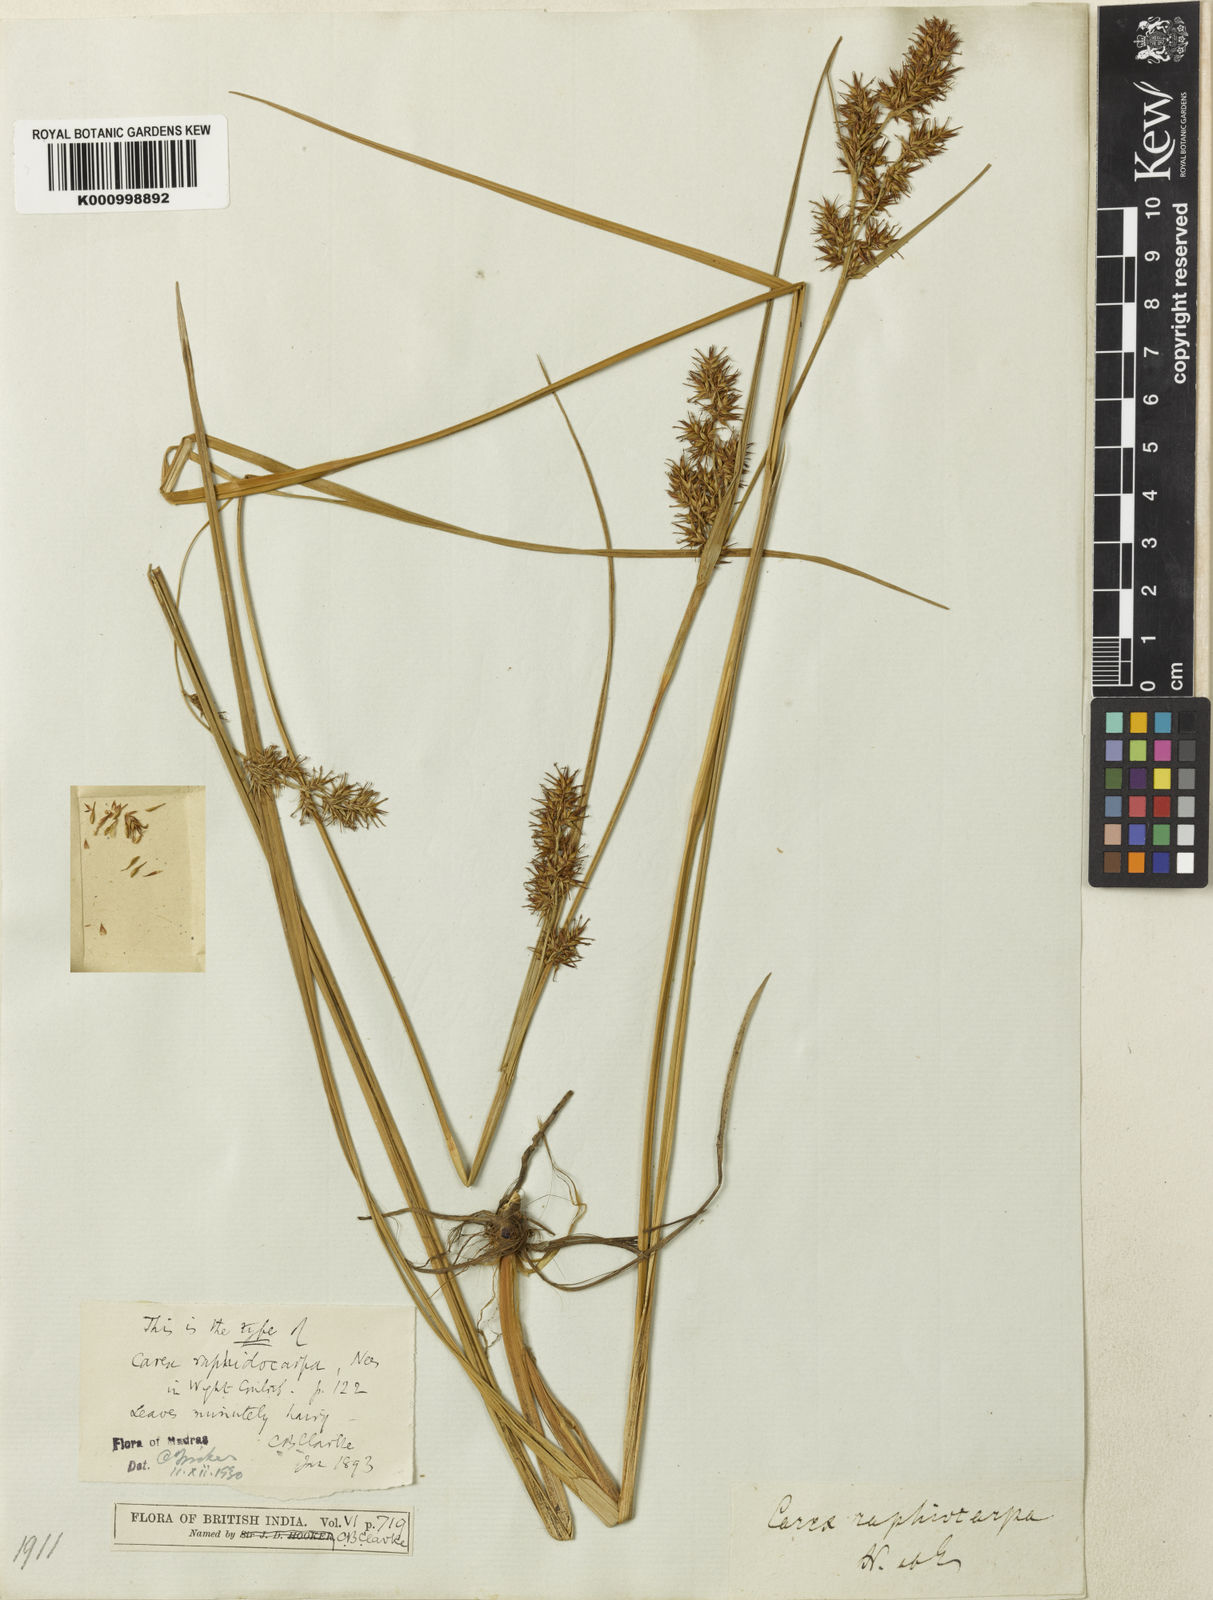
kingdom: Plantae
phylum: Tracheophyta
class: Liliopsida
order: Poales
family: Cyperaceae
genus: Carex
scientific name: Carex raphidocarpa
